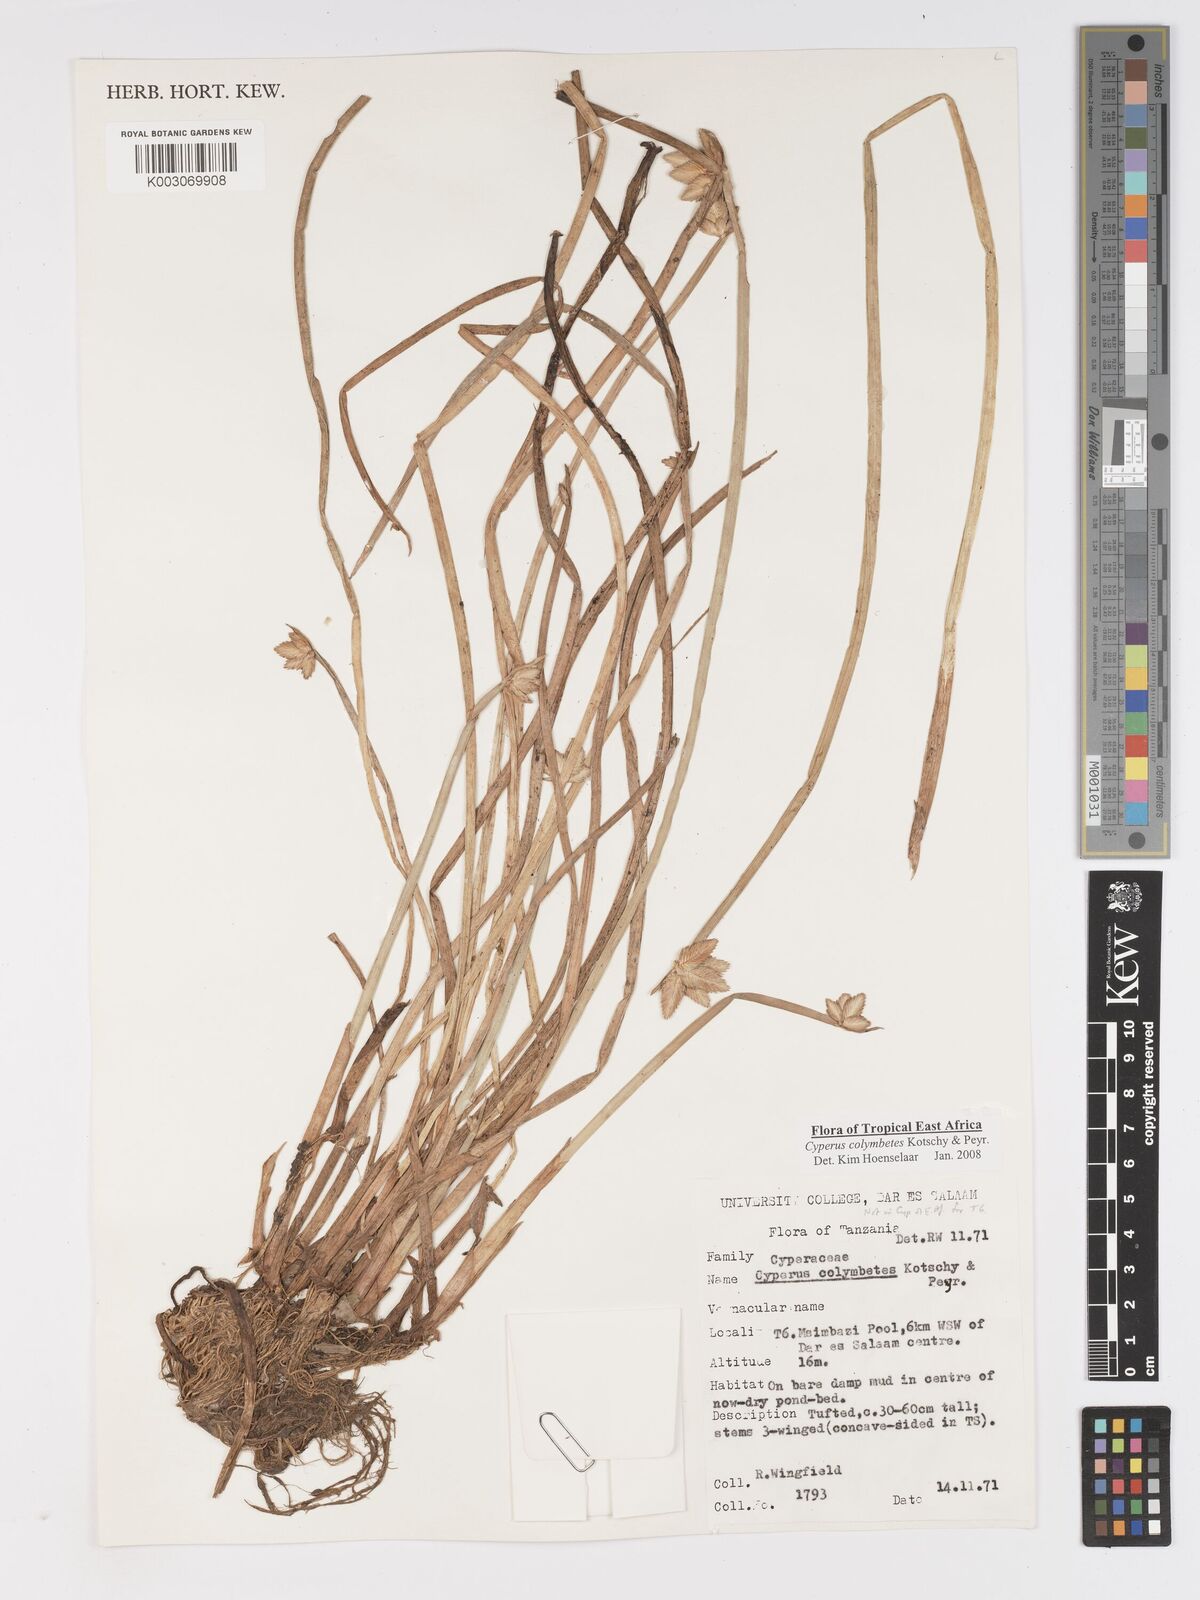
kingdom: Plantae
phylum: Tracheophyta
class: Liliopsida
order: Poales
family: Cyperaceae
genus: Cyperus
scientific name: Cyperus colymbetes
